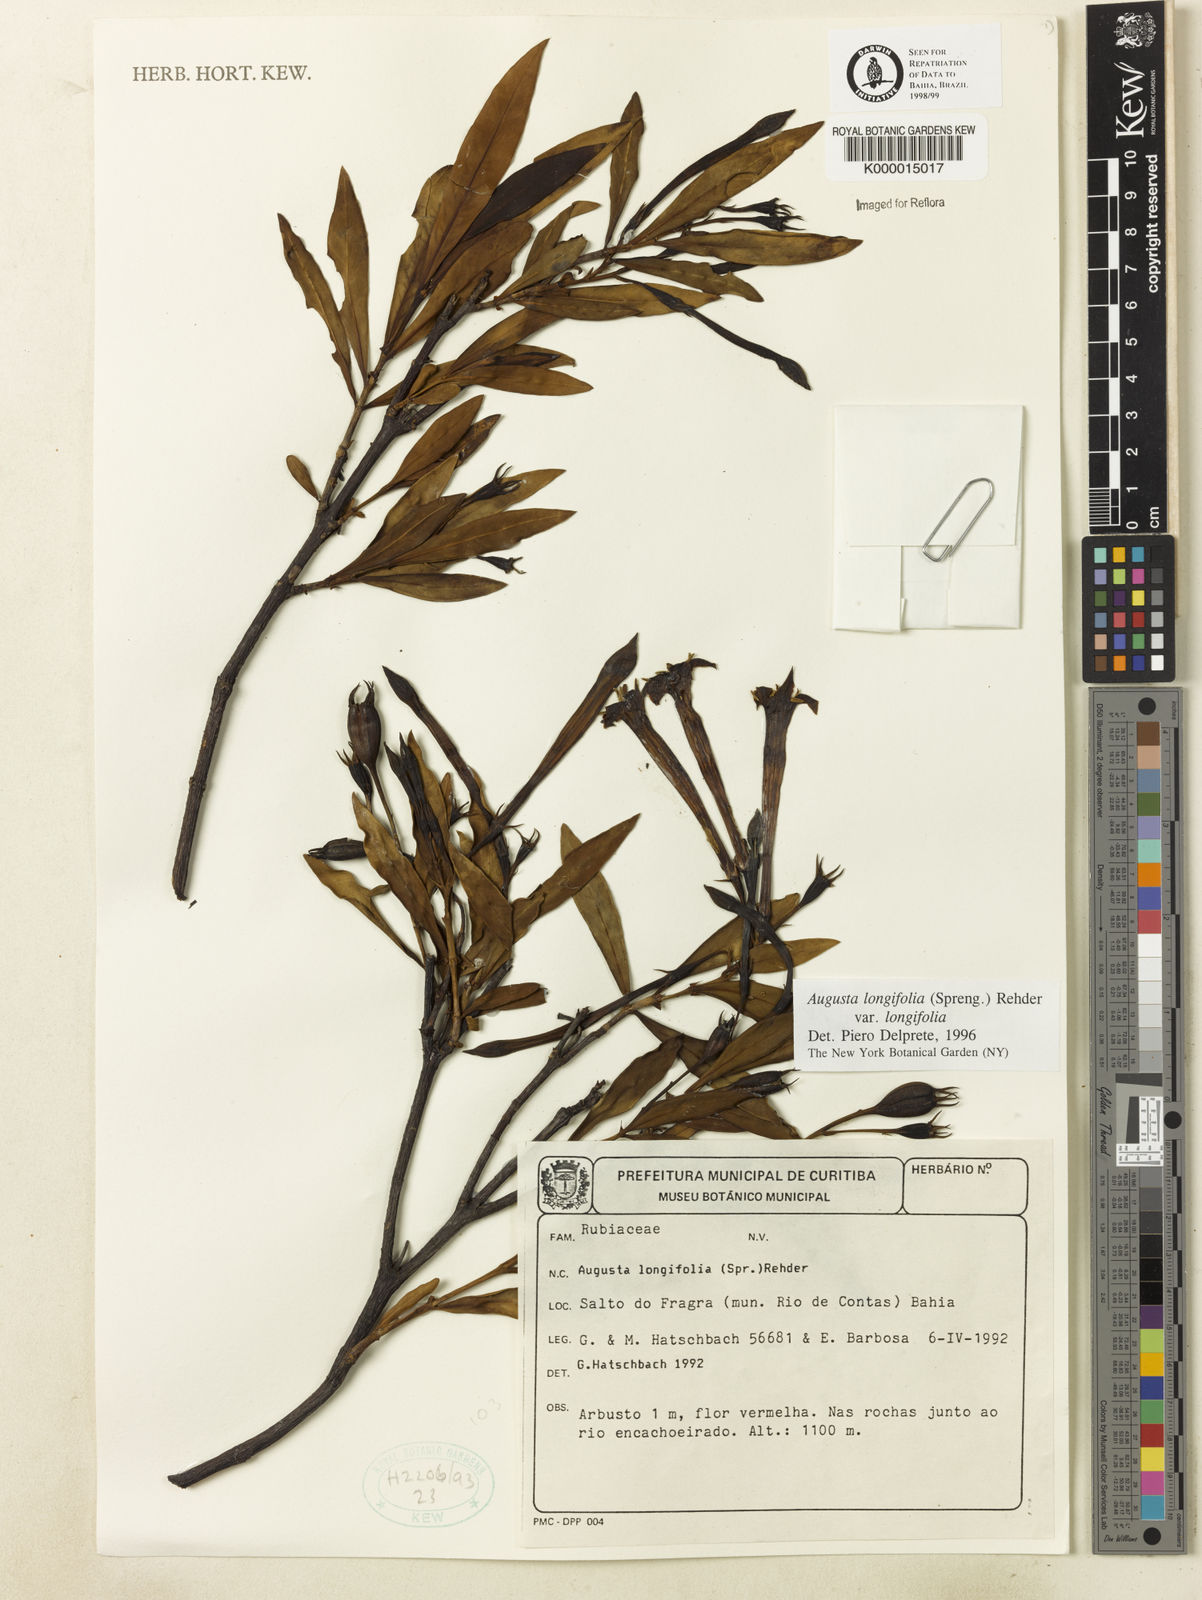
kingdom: Plantae
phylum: Tracheophyta
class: Magnoliopsida
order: Gentianales
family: Rubiaceae
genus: Augusta
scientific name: Augusta longifolia
